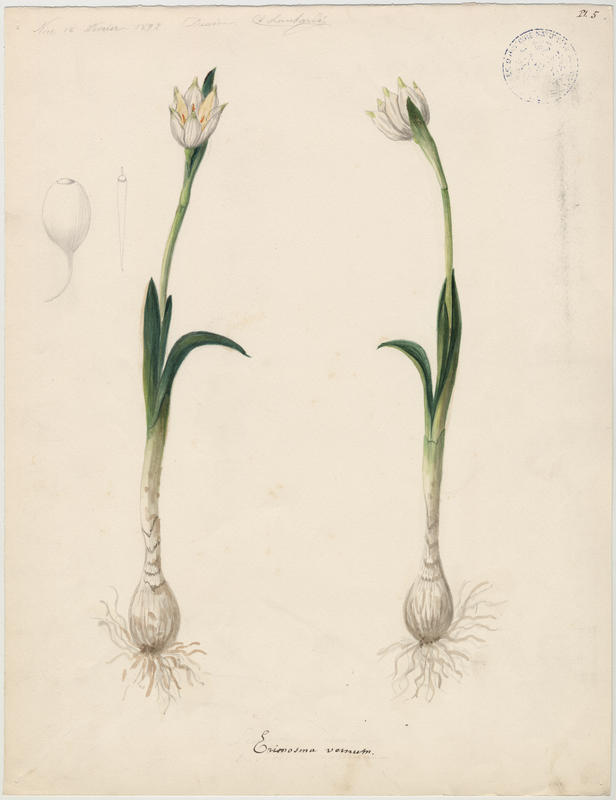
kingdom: Plantae
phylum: Tracheophyta
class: Liliopsida
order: Asparagales
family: Amaryllidaceae
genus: Leucojum
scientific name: Leucojum vernum
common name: Spring snowflake
